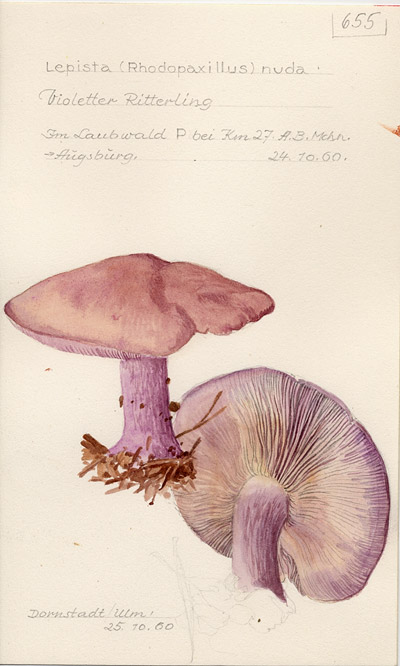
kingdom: Fungi
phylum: Basidiomycota
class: Agaricomycetes
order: Agaricales
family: Tricholomataceae
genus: Lepista
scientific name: Lepista nuda
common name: Wood blewit
